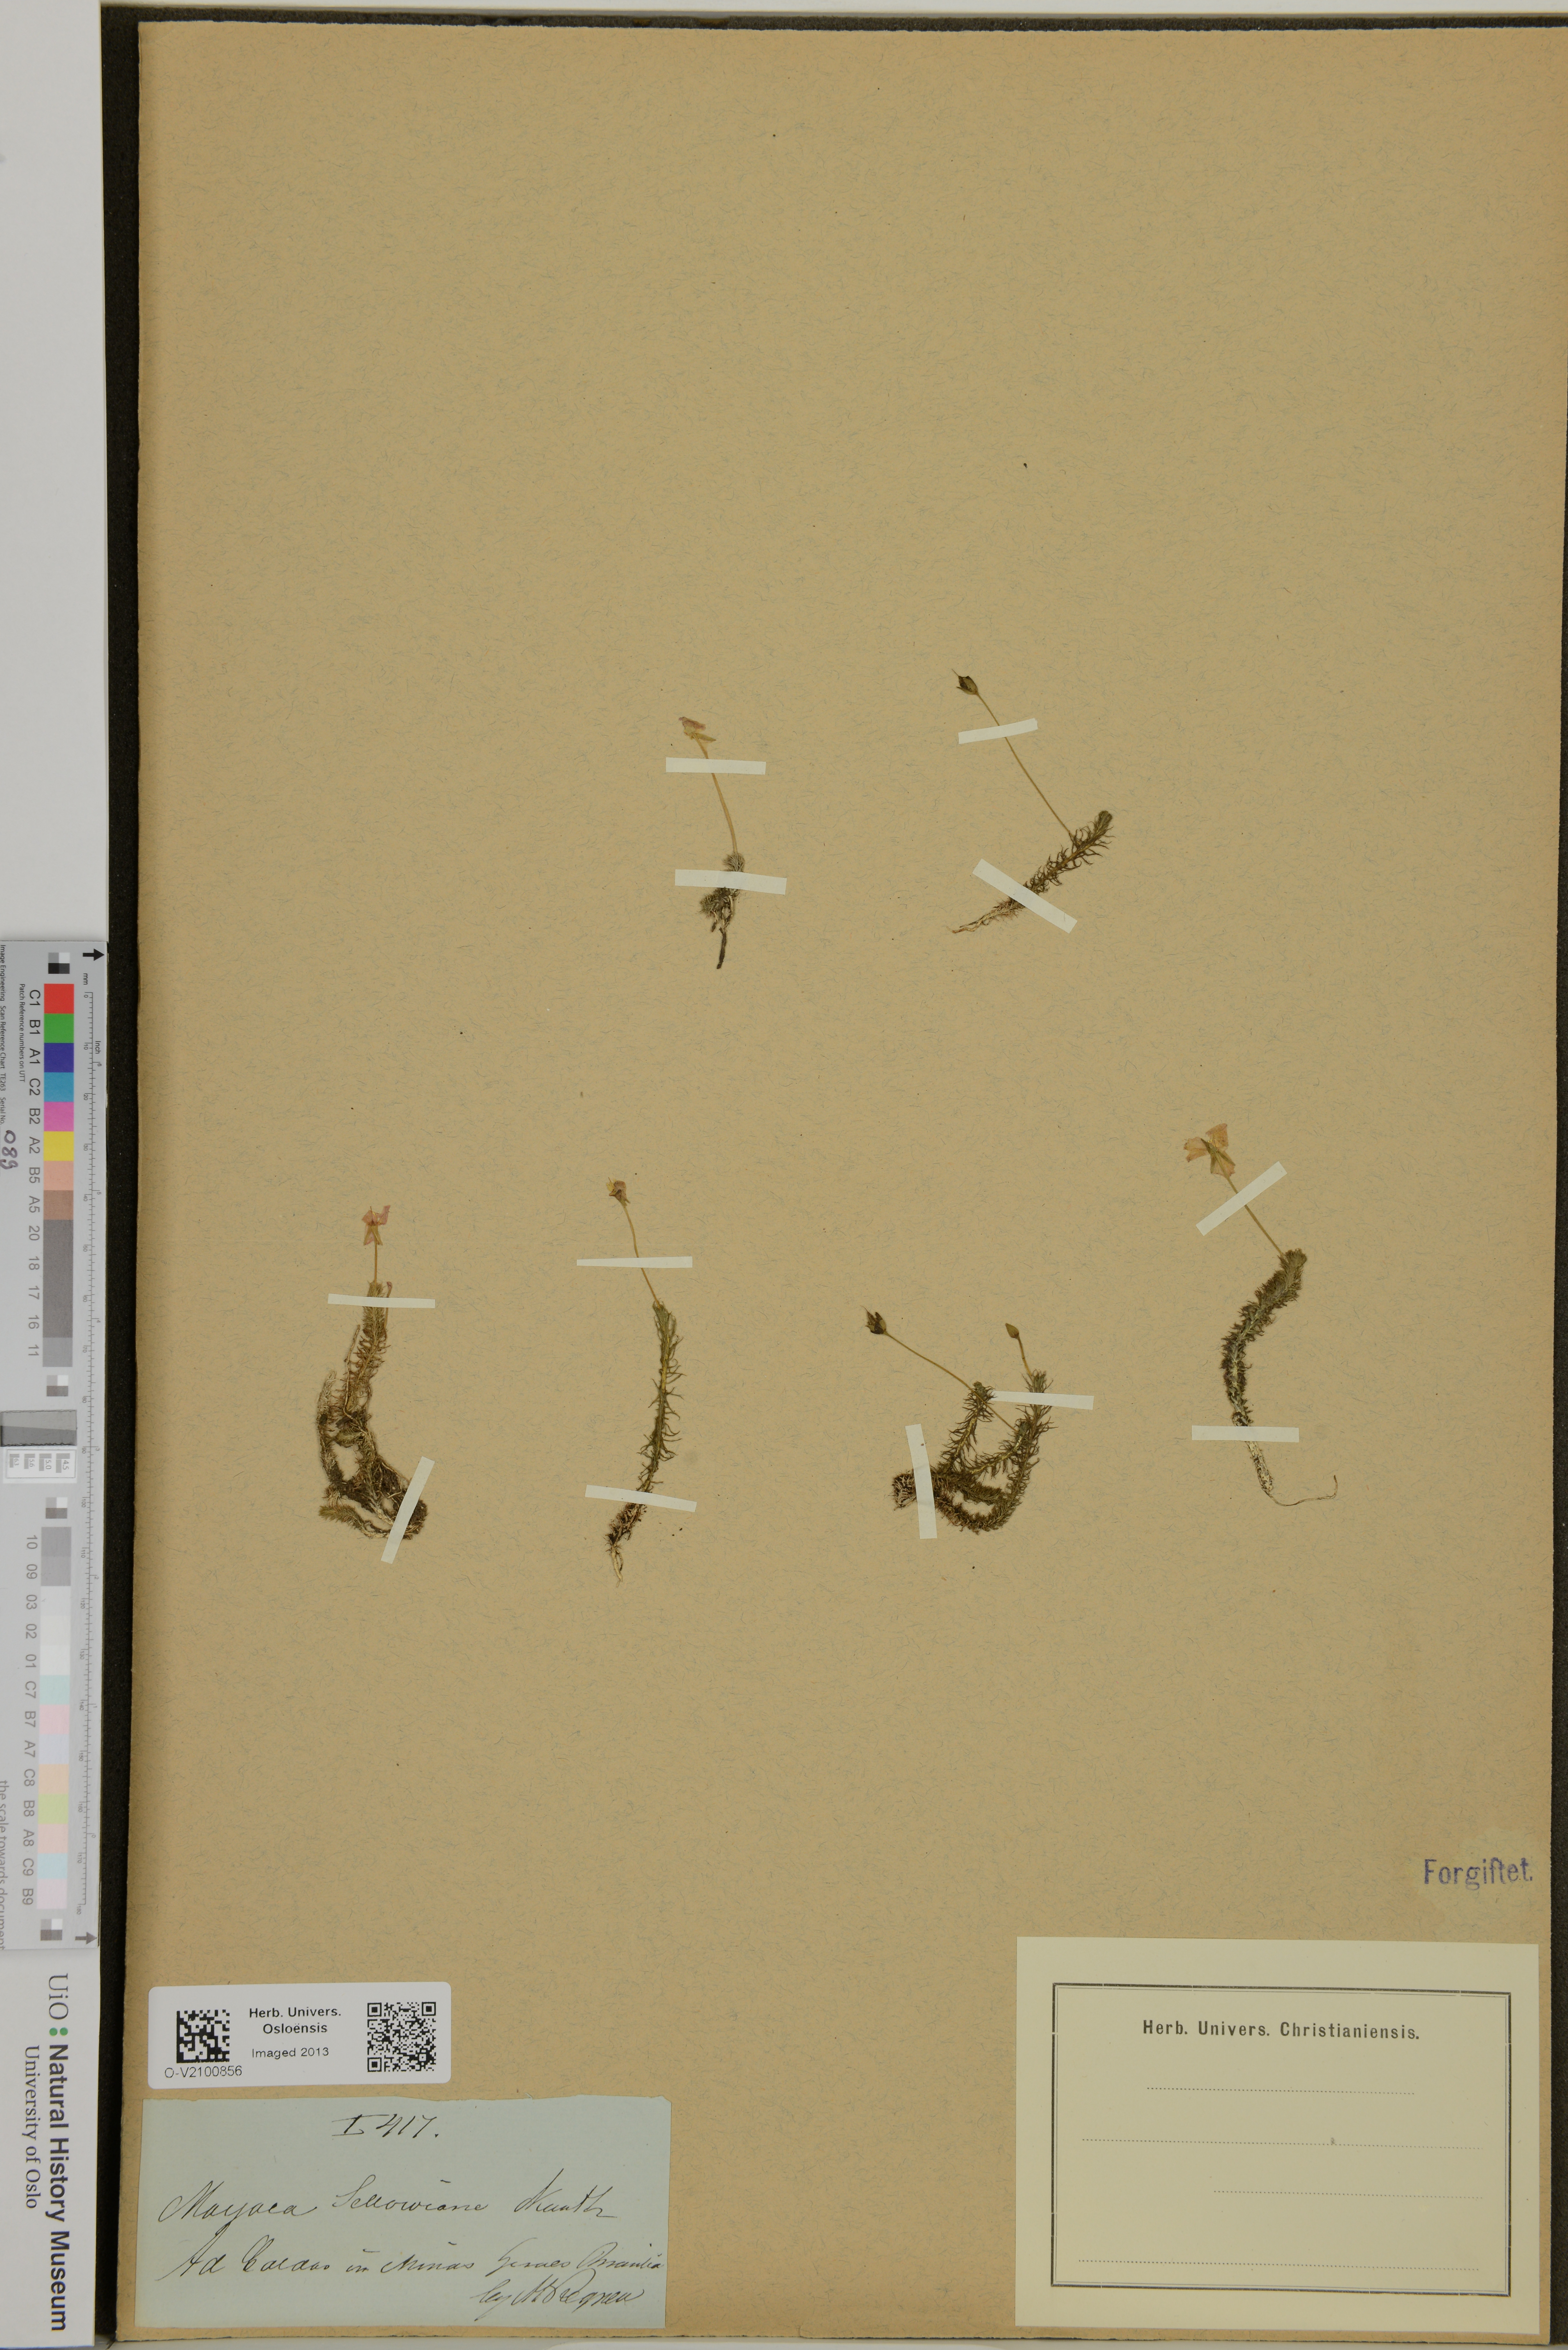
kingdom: Plantae
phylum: Tracheophyta
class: Liliopsida
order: Poales
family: Mayacaceae
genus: Mayaca
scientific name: Mayaca sellowiana
